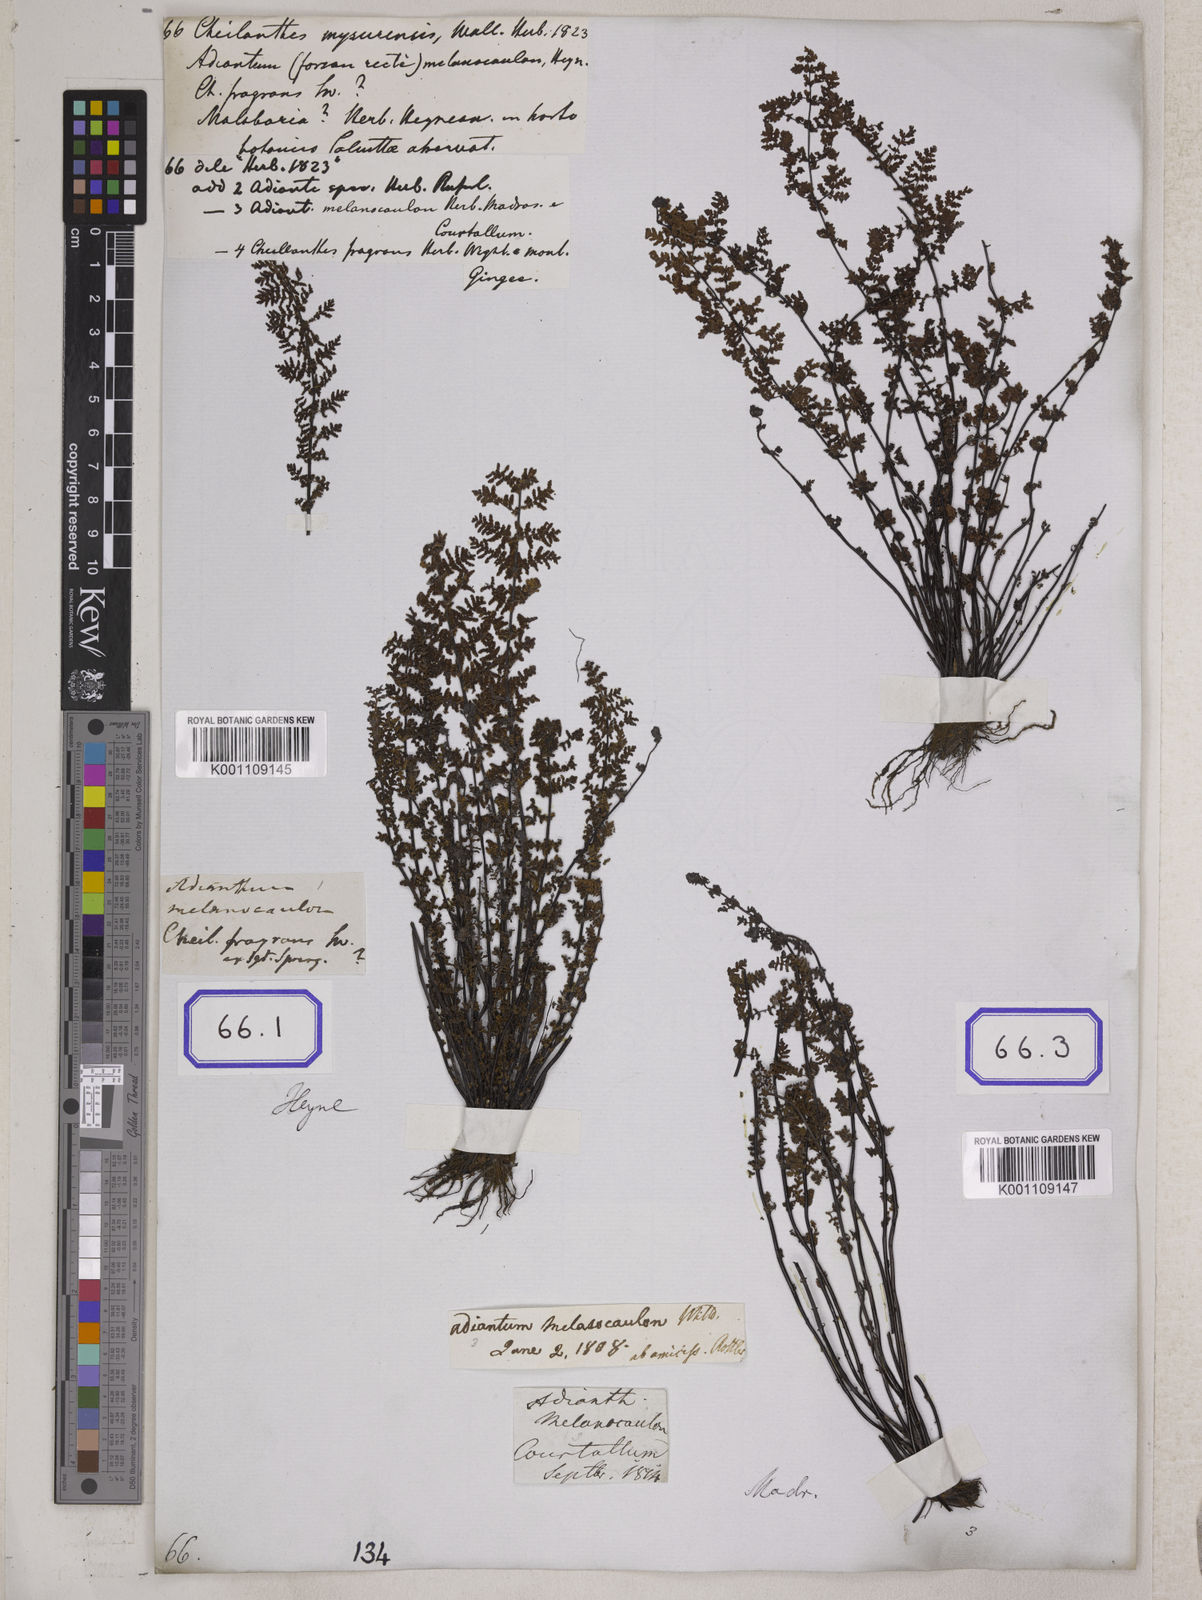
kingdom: Plantae
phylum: Tracheophyta
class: Polypodiopsida
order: Polypodiales
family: Pteridaceae
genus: Oeosporangium
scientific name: Oeosporangium elegans
